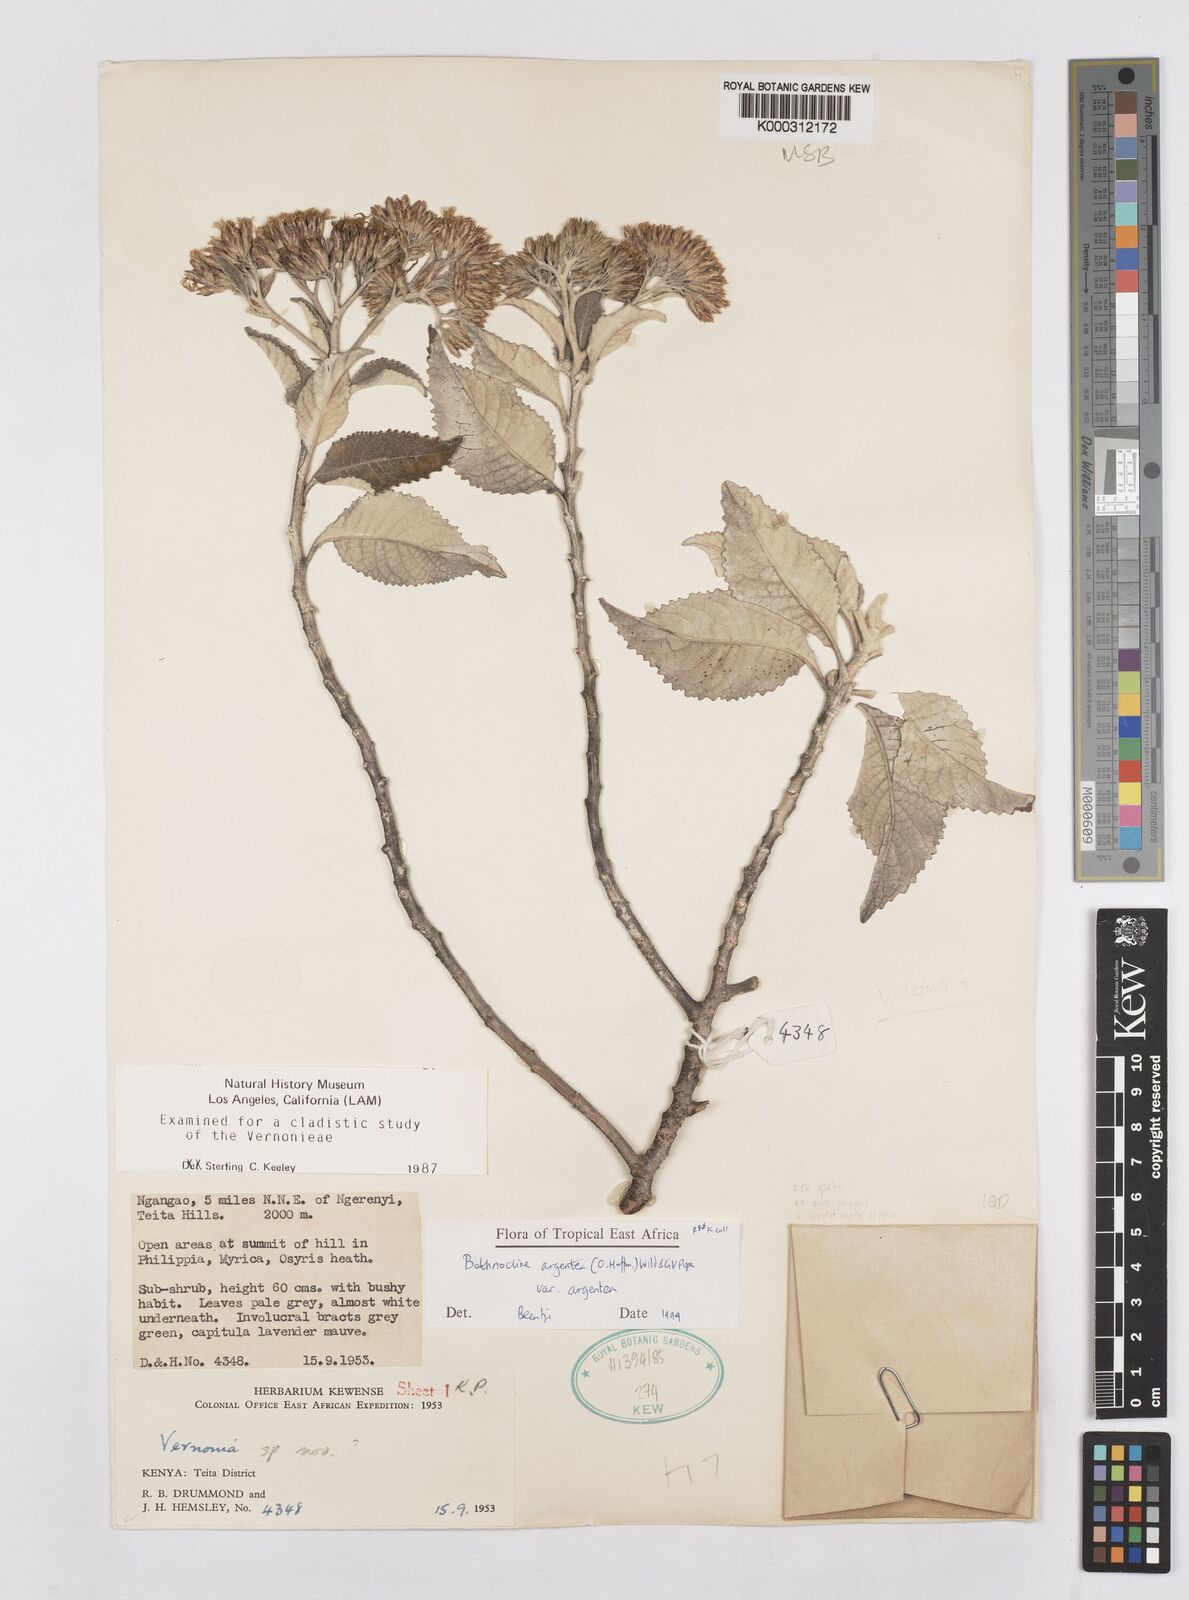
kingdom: Plantae
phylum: Tracheophyta
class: Magnoliopsida
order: Asterales
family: Asteraceae
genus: Bothriocline
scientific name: Bothriocline argentea
